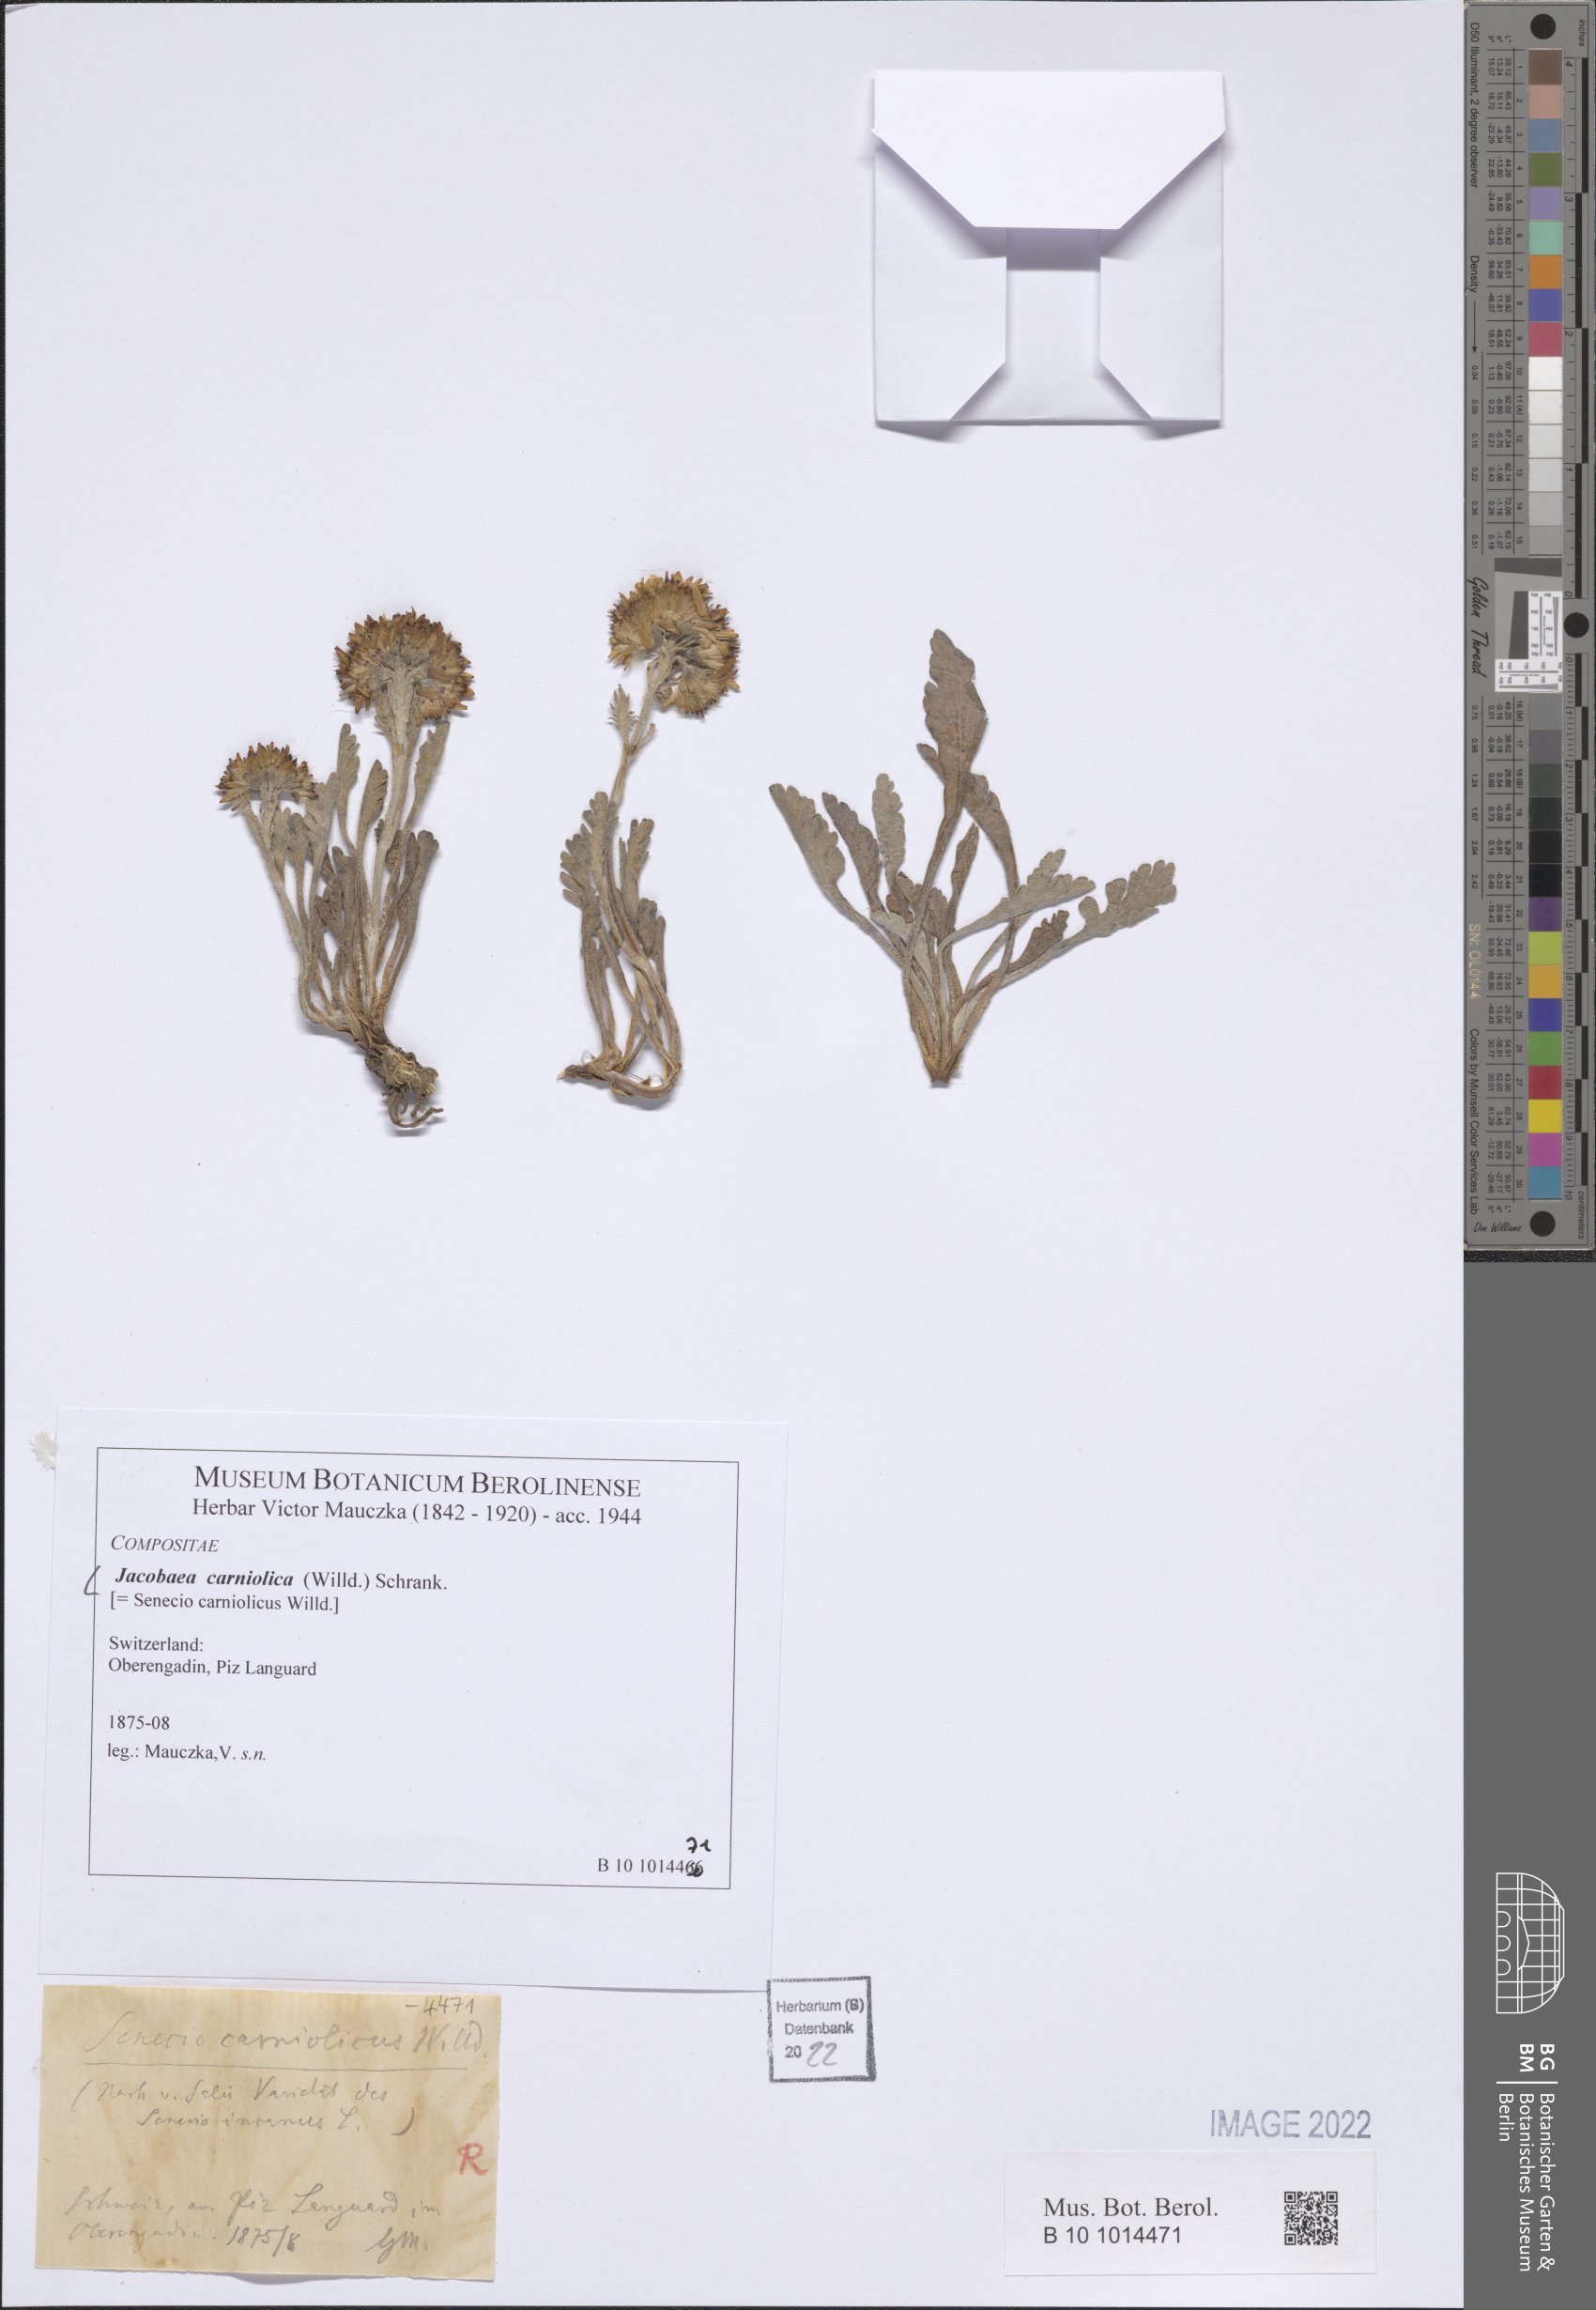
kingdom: Plantae
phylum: Tracheophyta
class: Magnoliopsida
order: Asterales
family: Asteraceae
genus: Jacobaea
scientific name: Jacobaea carniolica
